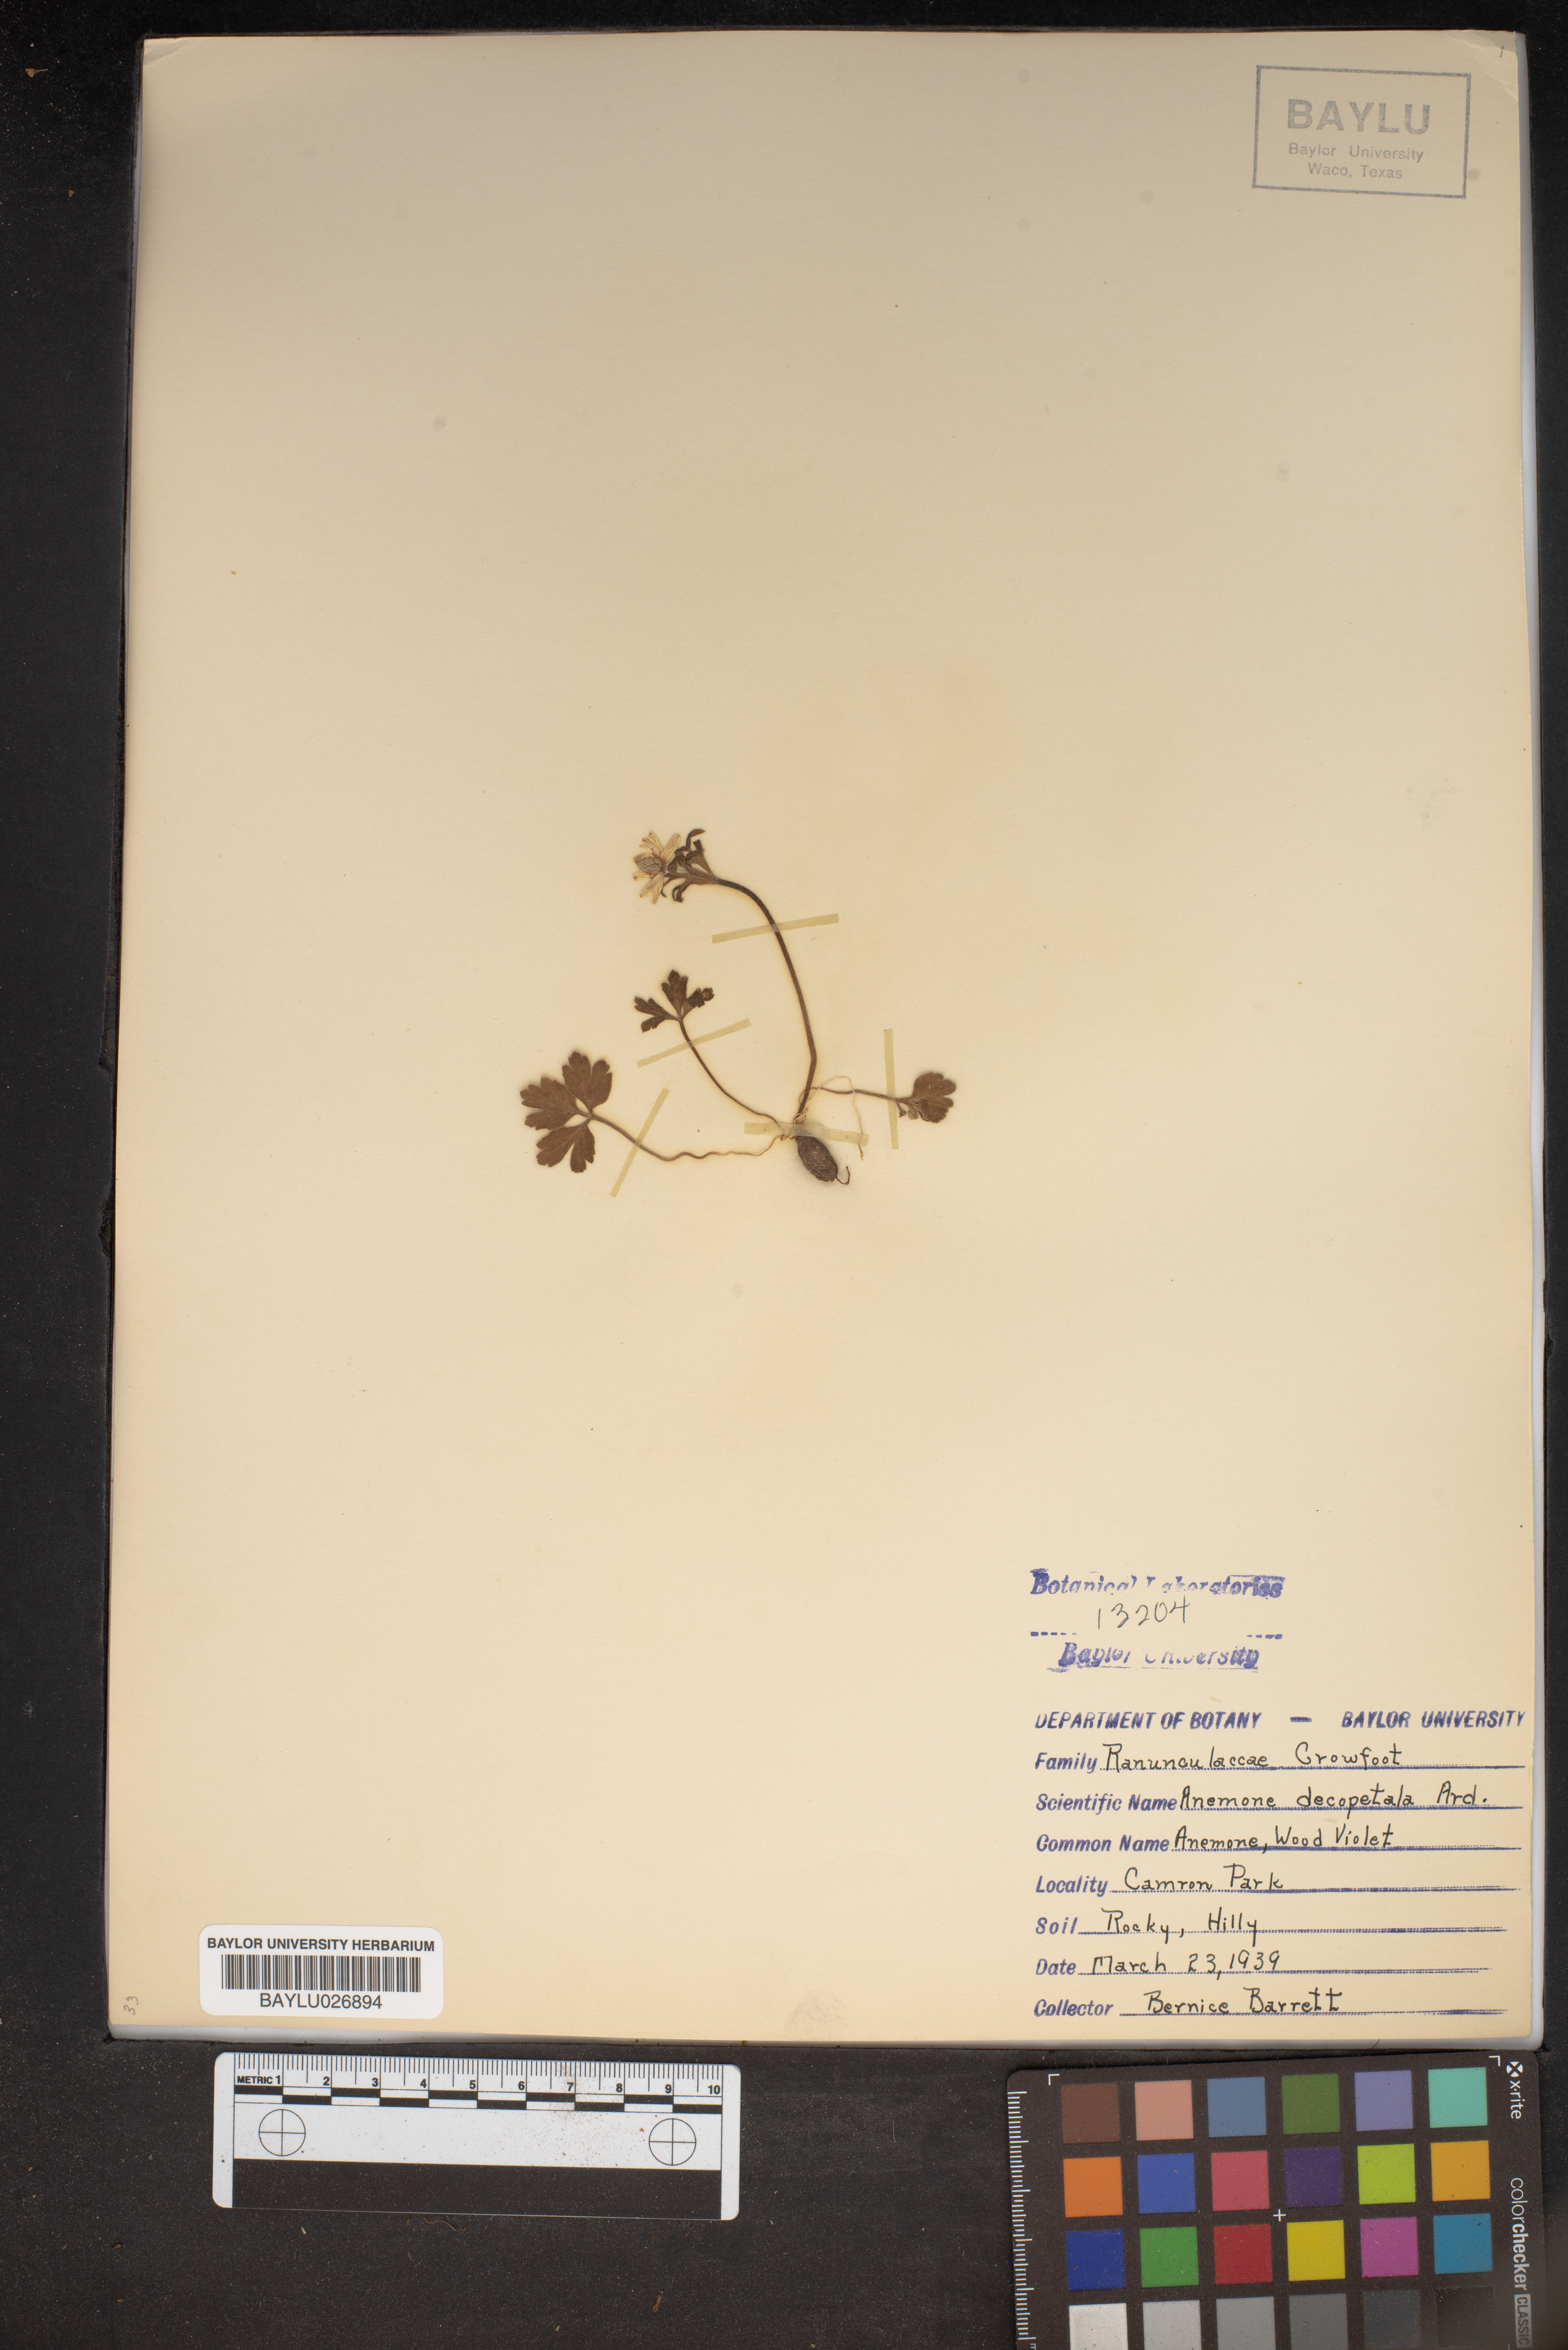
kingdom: Plantae
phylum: Tracheophyta
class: Magnoliopsida
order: Ranunculales
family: Ranunculaceae
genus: Anemone
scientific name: Anemone decapetala
